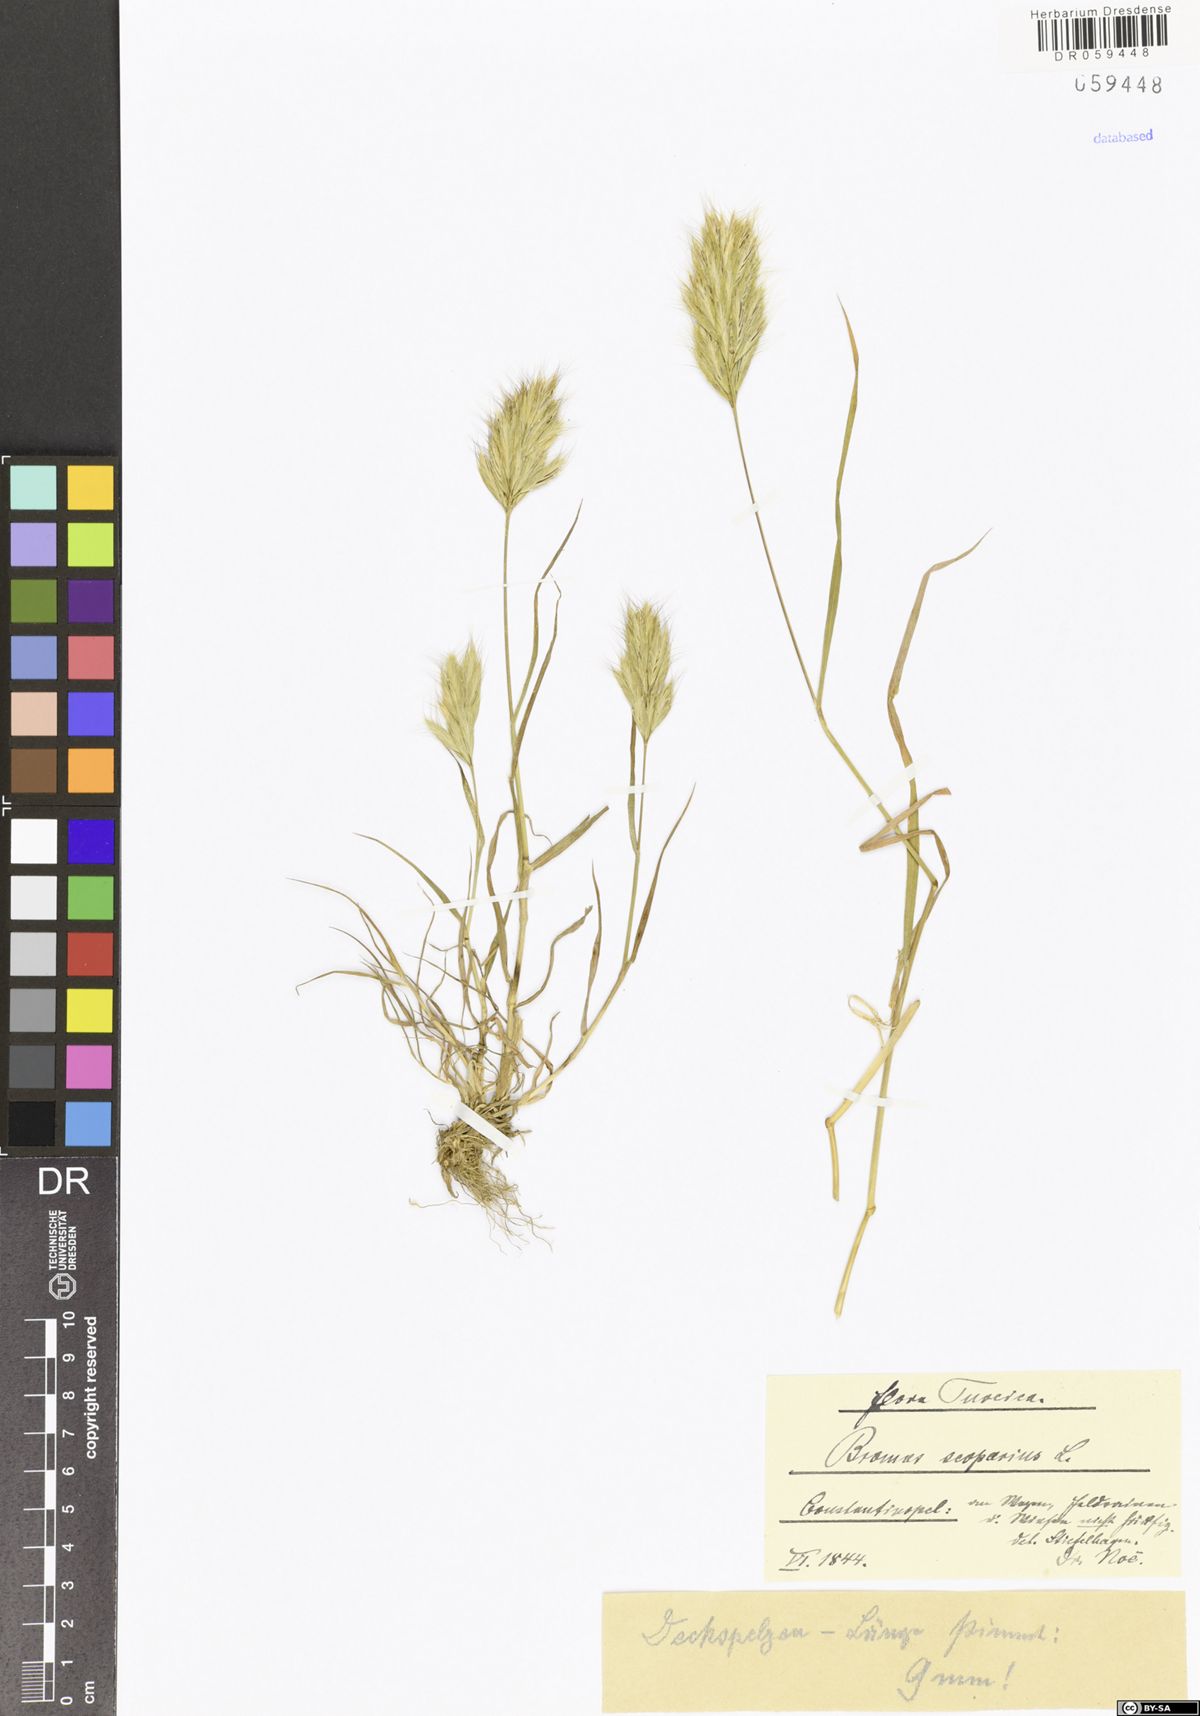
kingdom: Plantae
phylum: Tracheophyta
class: Liliopsida
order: Poales
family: Poaceae
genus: Bromus
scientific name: Bromus scoparius
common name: Broom brome
